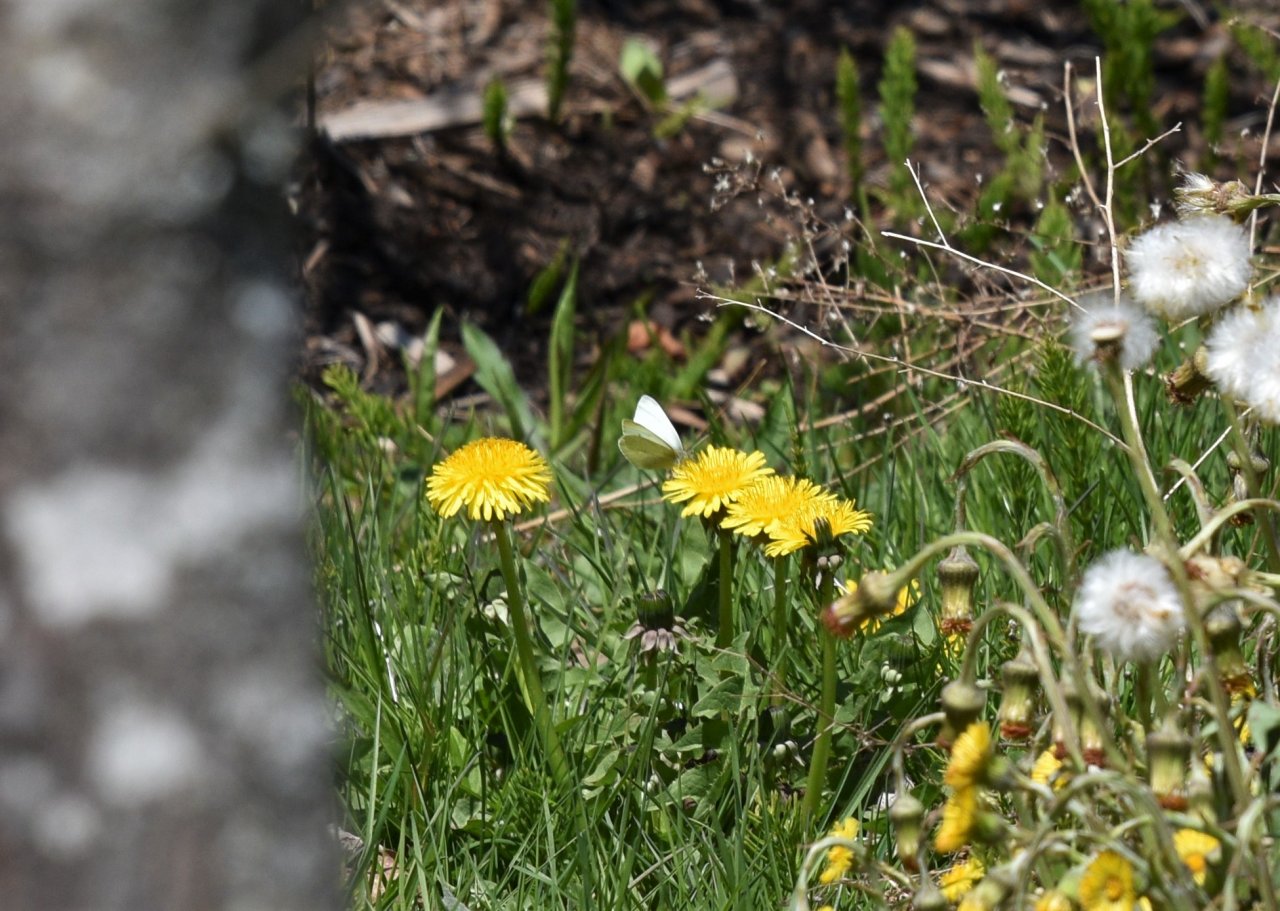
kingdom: Animalia
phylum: Arthropoda
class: Insecta
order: Lepidoptera
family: Pieridae
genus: Pieris
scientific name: Pieris rapae
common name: Cabbage White
